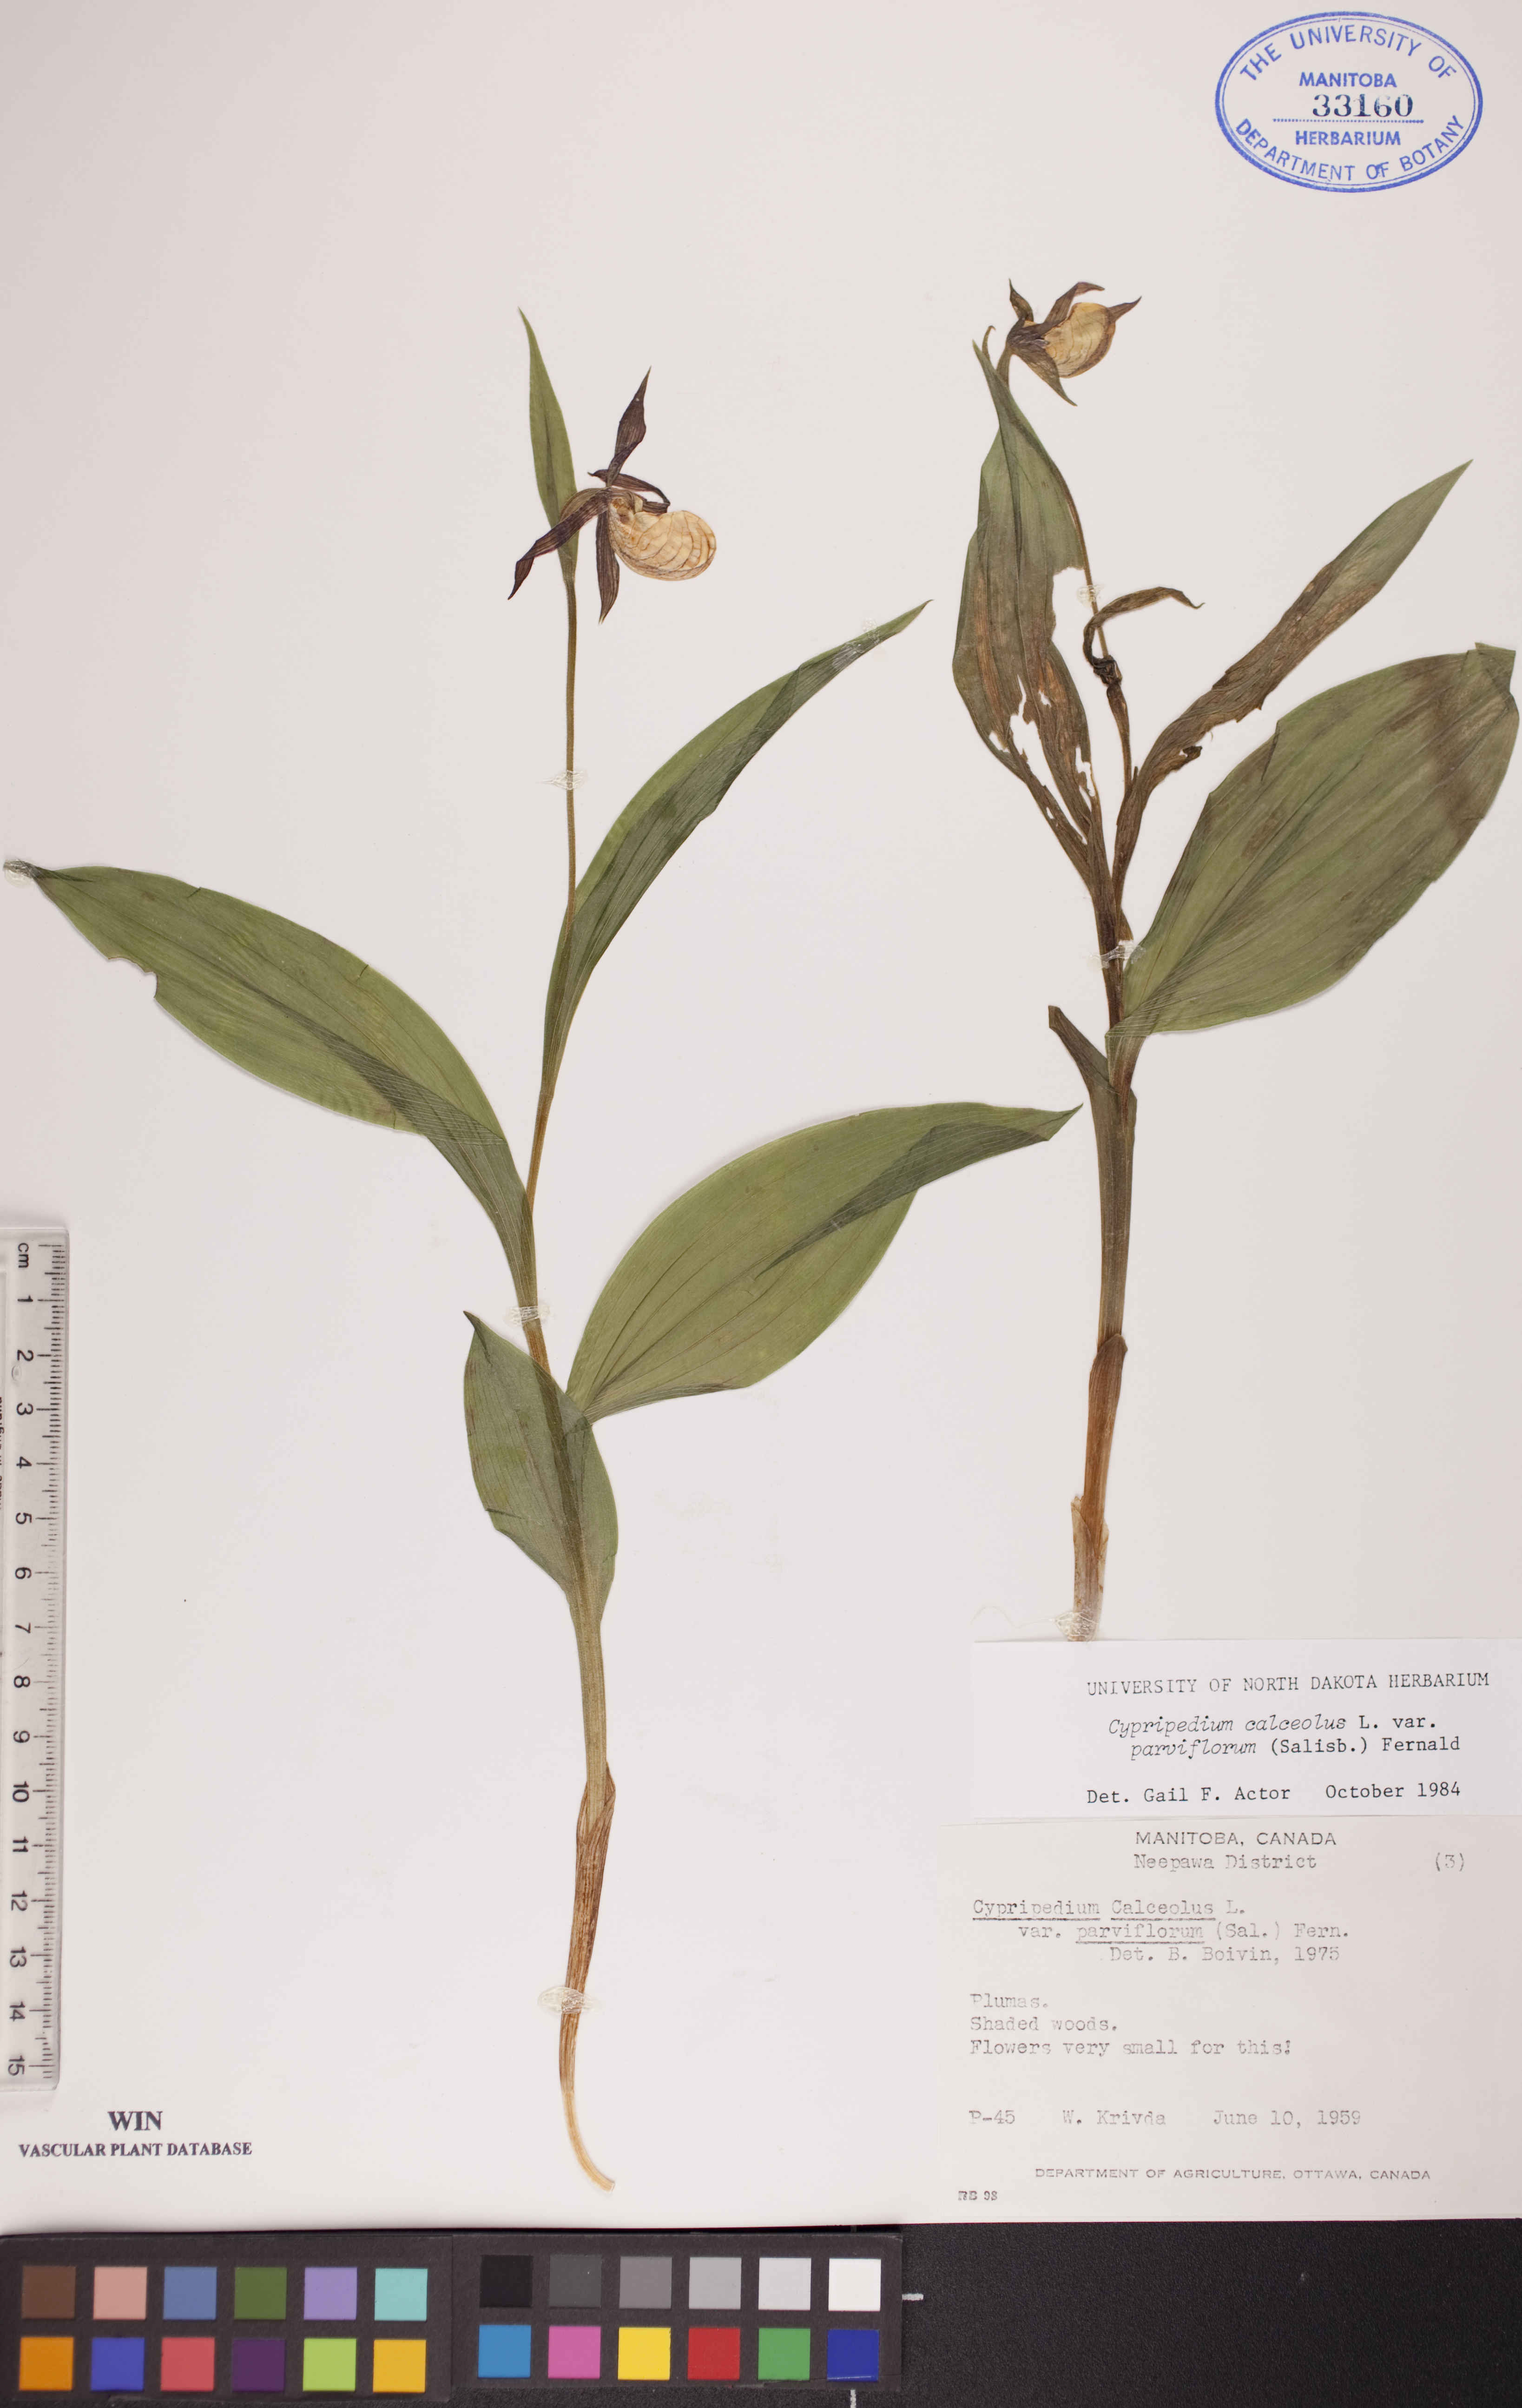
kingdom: Plantae
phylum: Tracheophyta
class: Liliopsida
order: Asparagales
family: Orchidaceae
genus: Cypripedium
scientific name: Cypripedium parviflorum
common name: American yellow lady's-slipper
